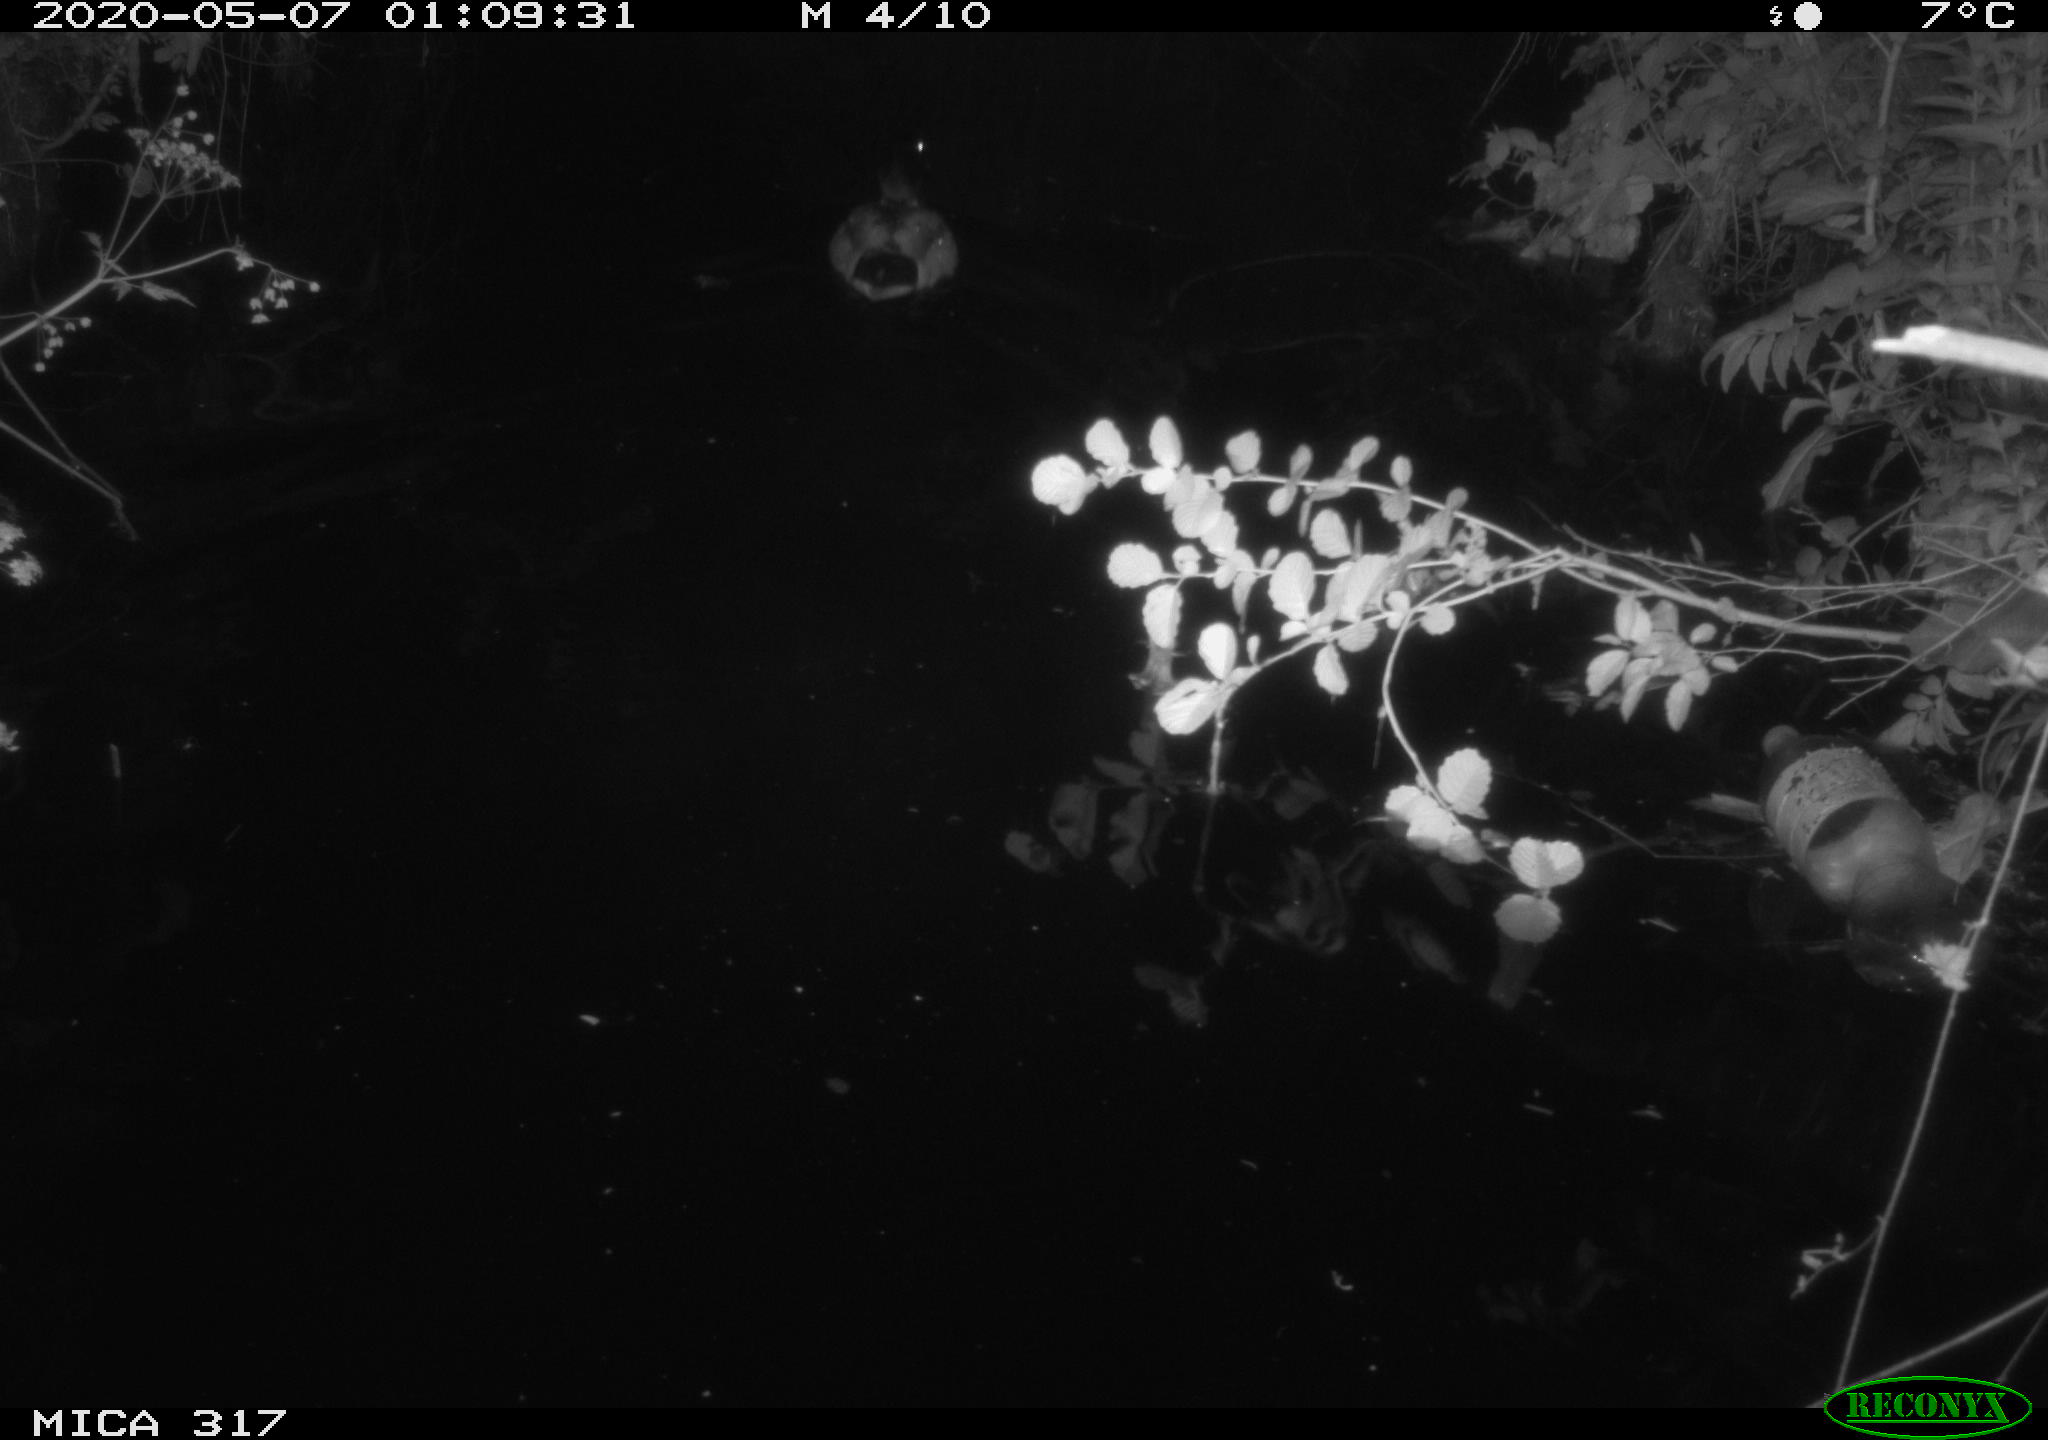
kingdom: Animalia
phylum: Chordata
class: Aves
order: Anseriformes
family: Anatidae
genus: Anas
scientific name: Anas platyrhynchos
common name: Mallard
